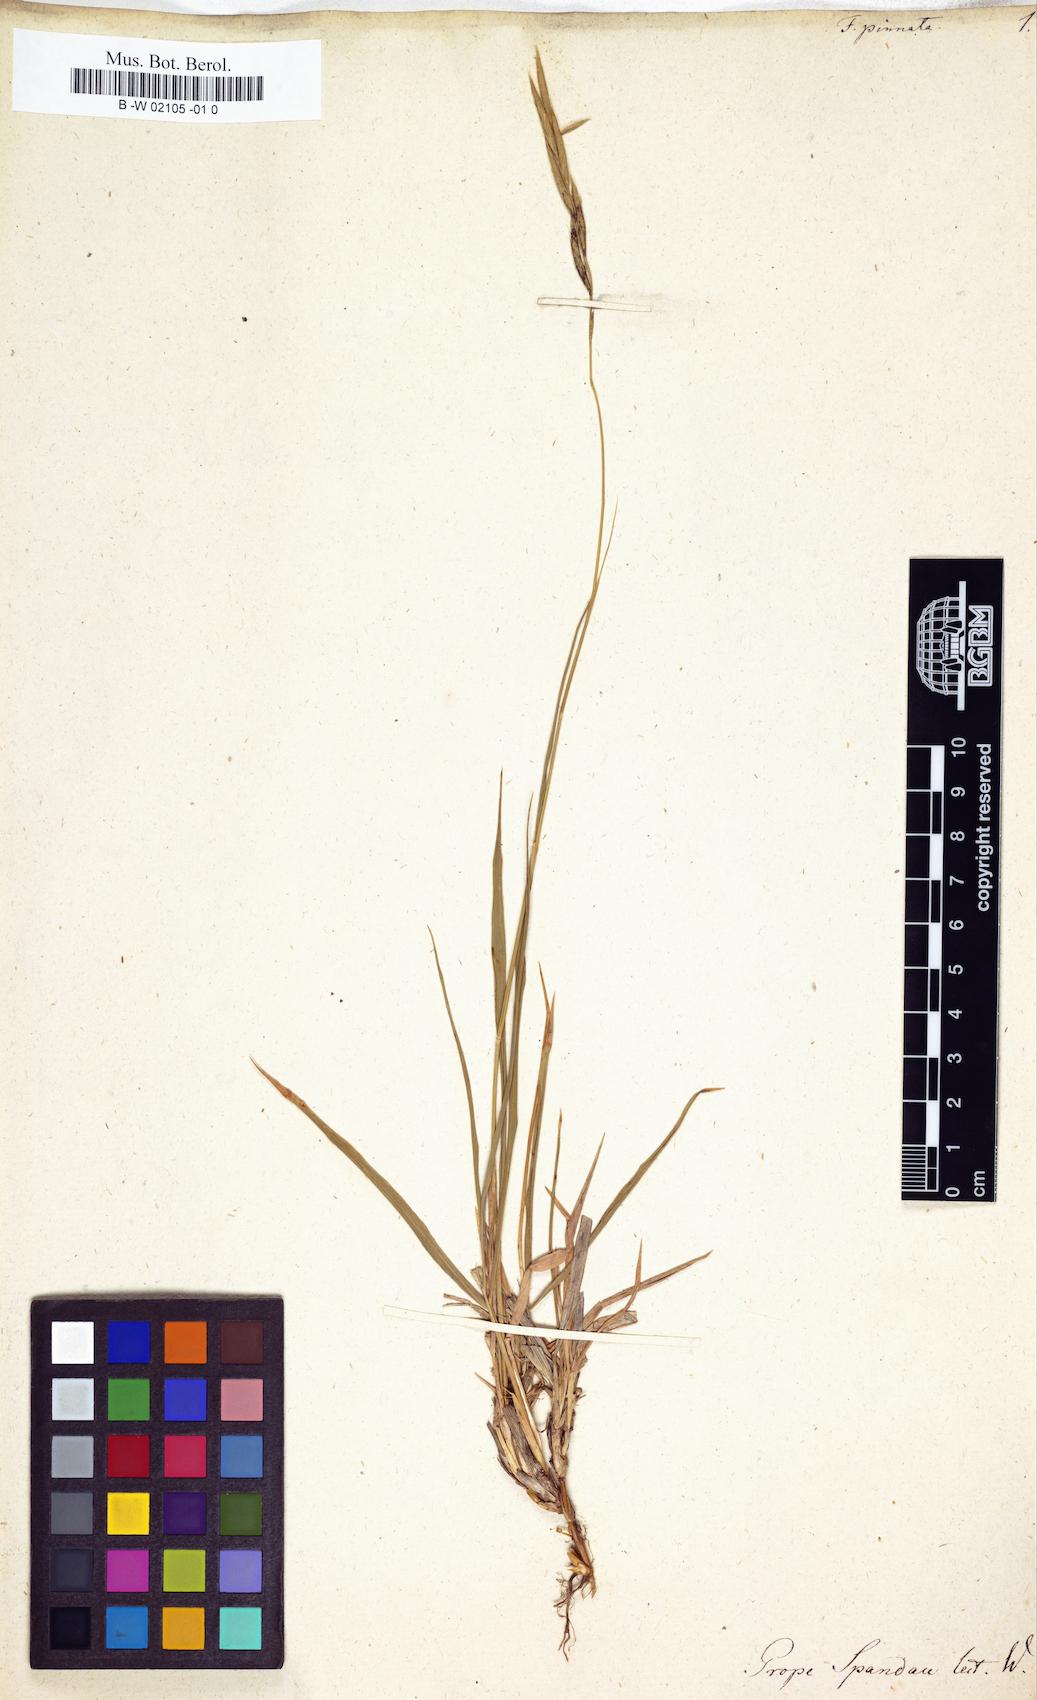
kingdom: Plantae
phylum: Tracheophyta
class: Liliopsida
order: Poales
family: Poaceae
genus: Brachypodium
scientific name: Brachypodium pinnatum
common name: Tor grass
